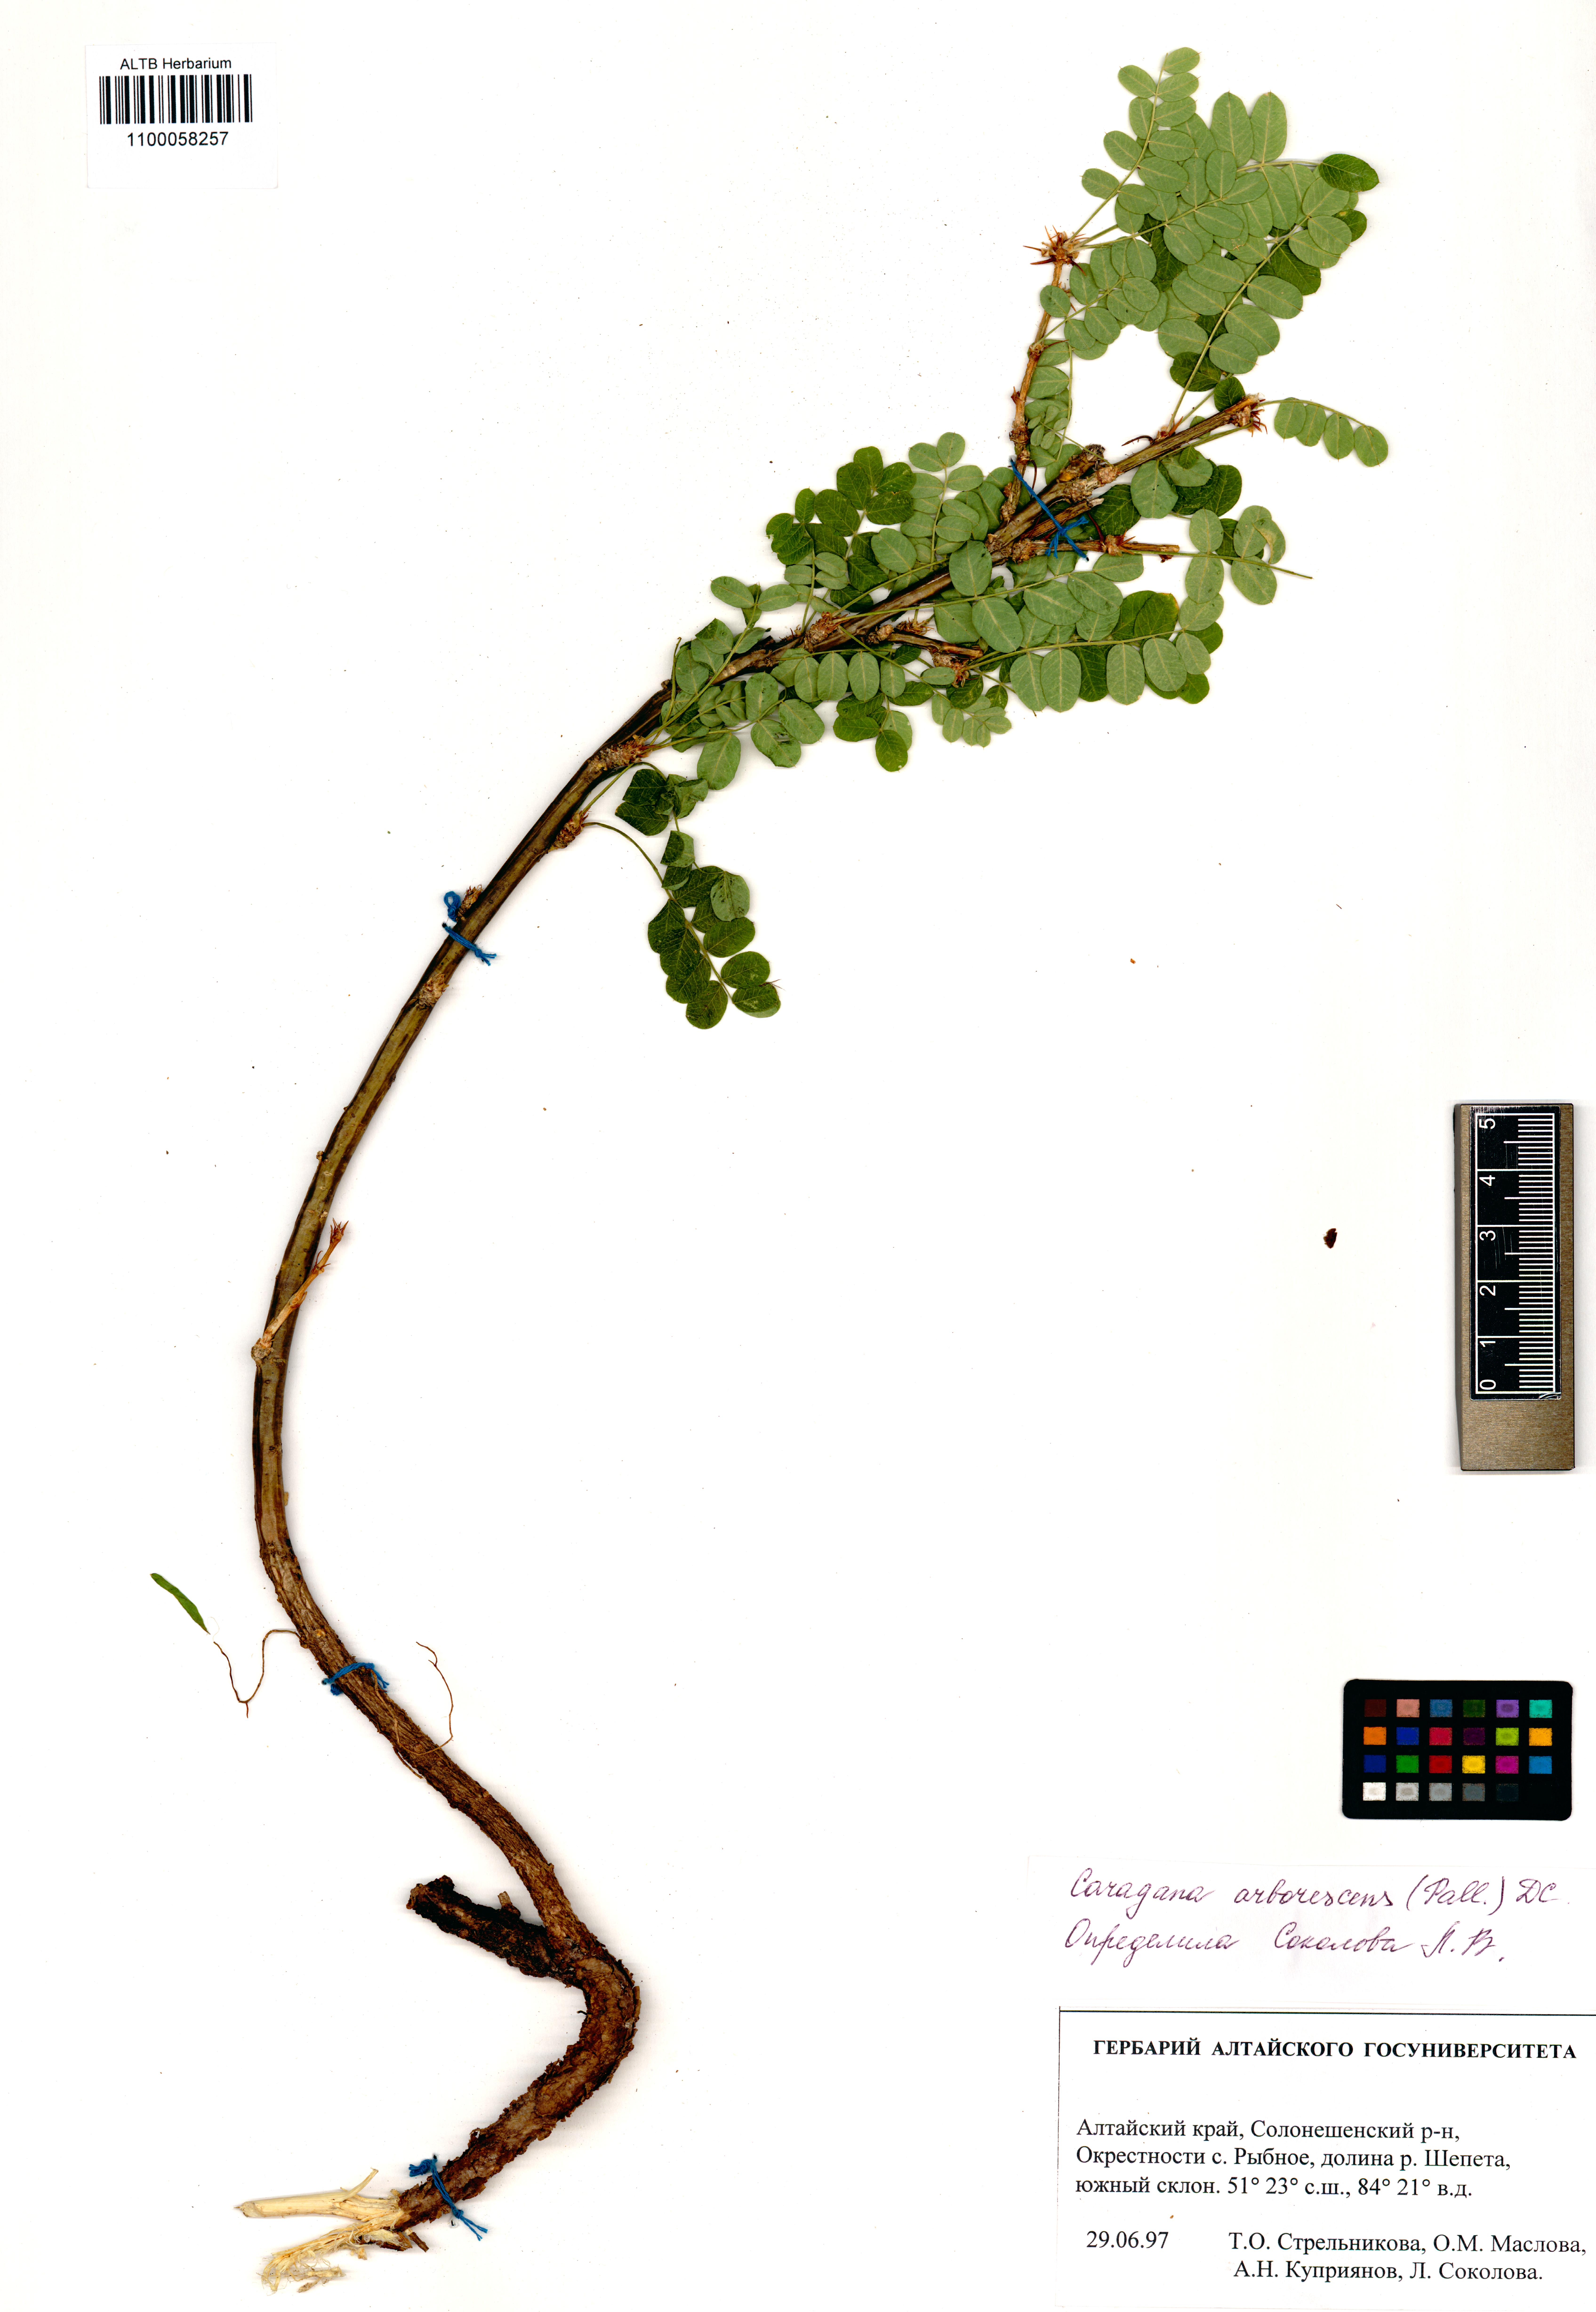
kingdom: Plantae
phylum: Tracheophyta
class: Magnoliopsida
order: Fabales
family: Fabaceae
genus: Caragana
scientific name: Caragana arborescens
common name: Siberian peashrub
